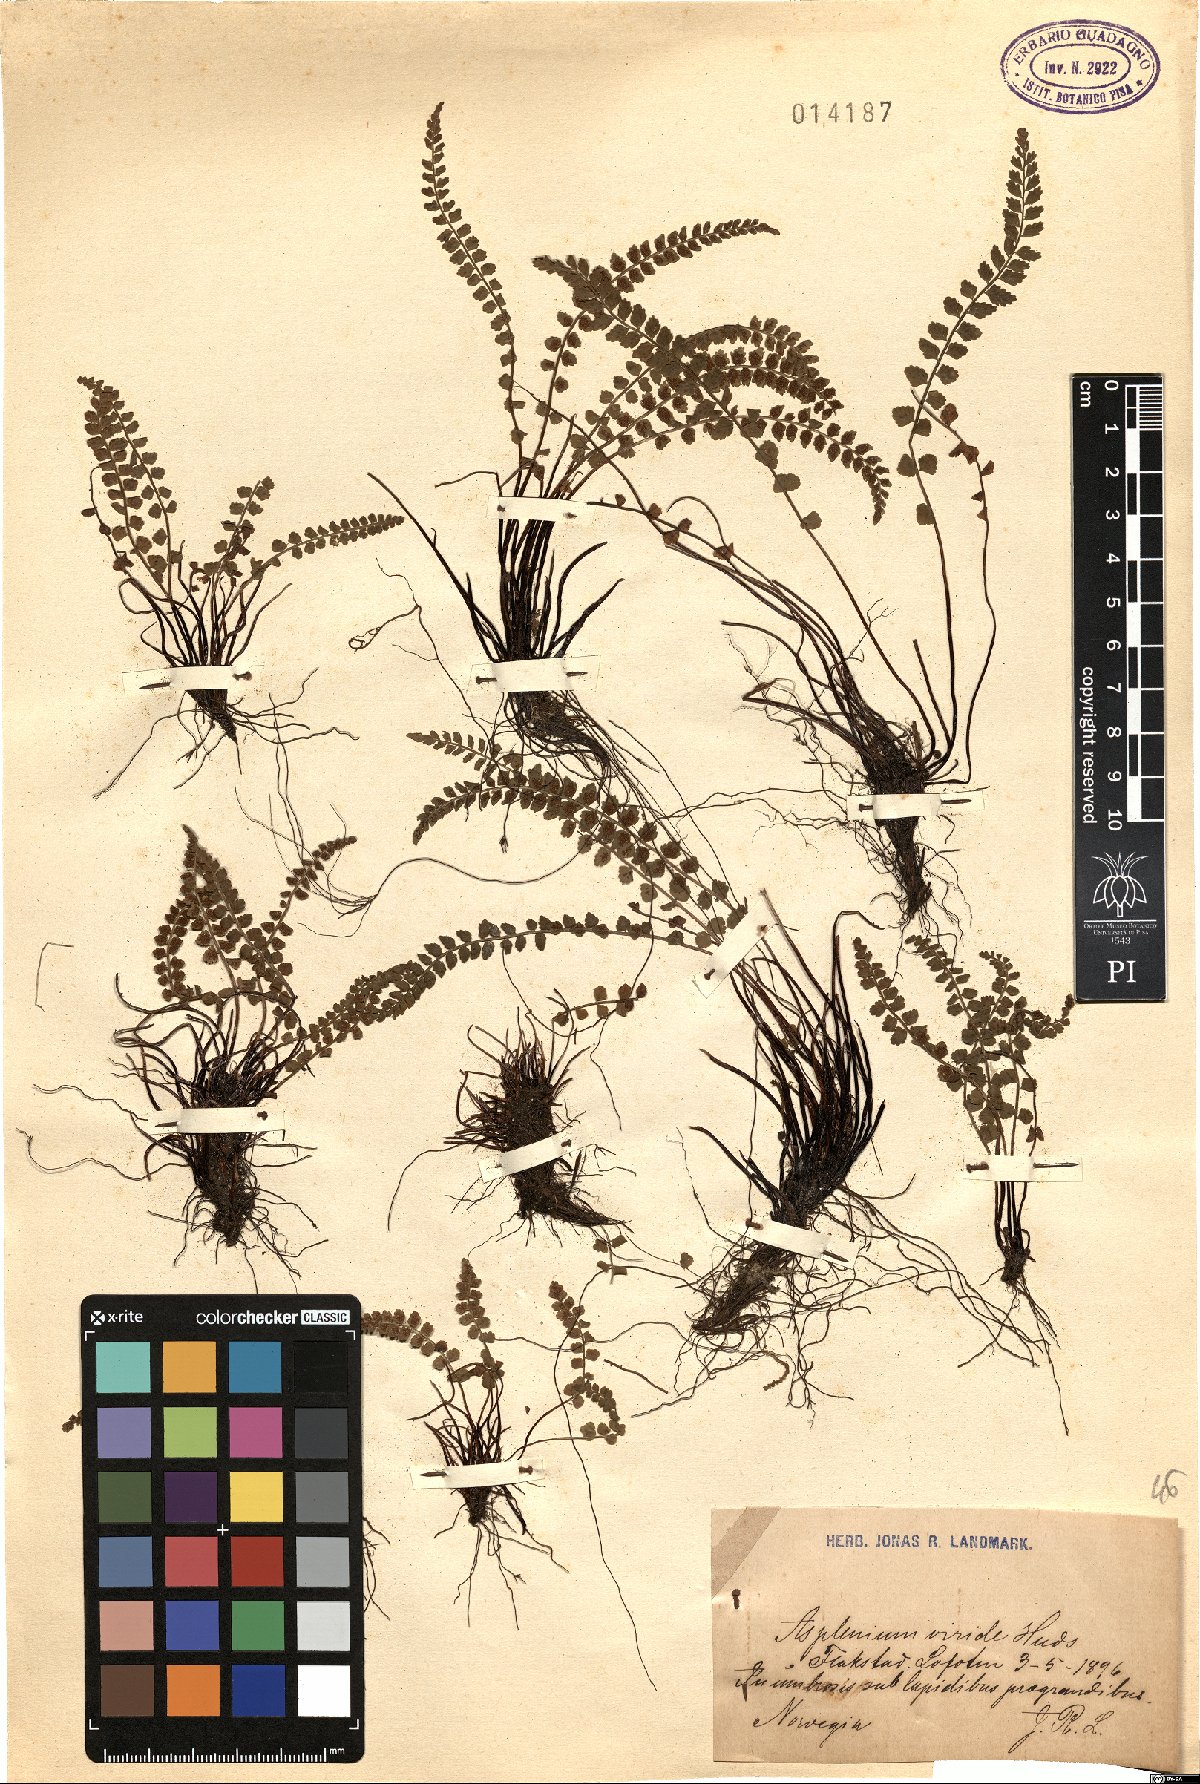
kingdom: Plantae
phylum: Tracheophyta
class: Polypodiopsida
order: Polypodiales
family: Aspleniaceae
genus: Asplenium
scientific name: Asplenium viride
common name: Green spleenwort
